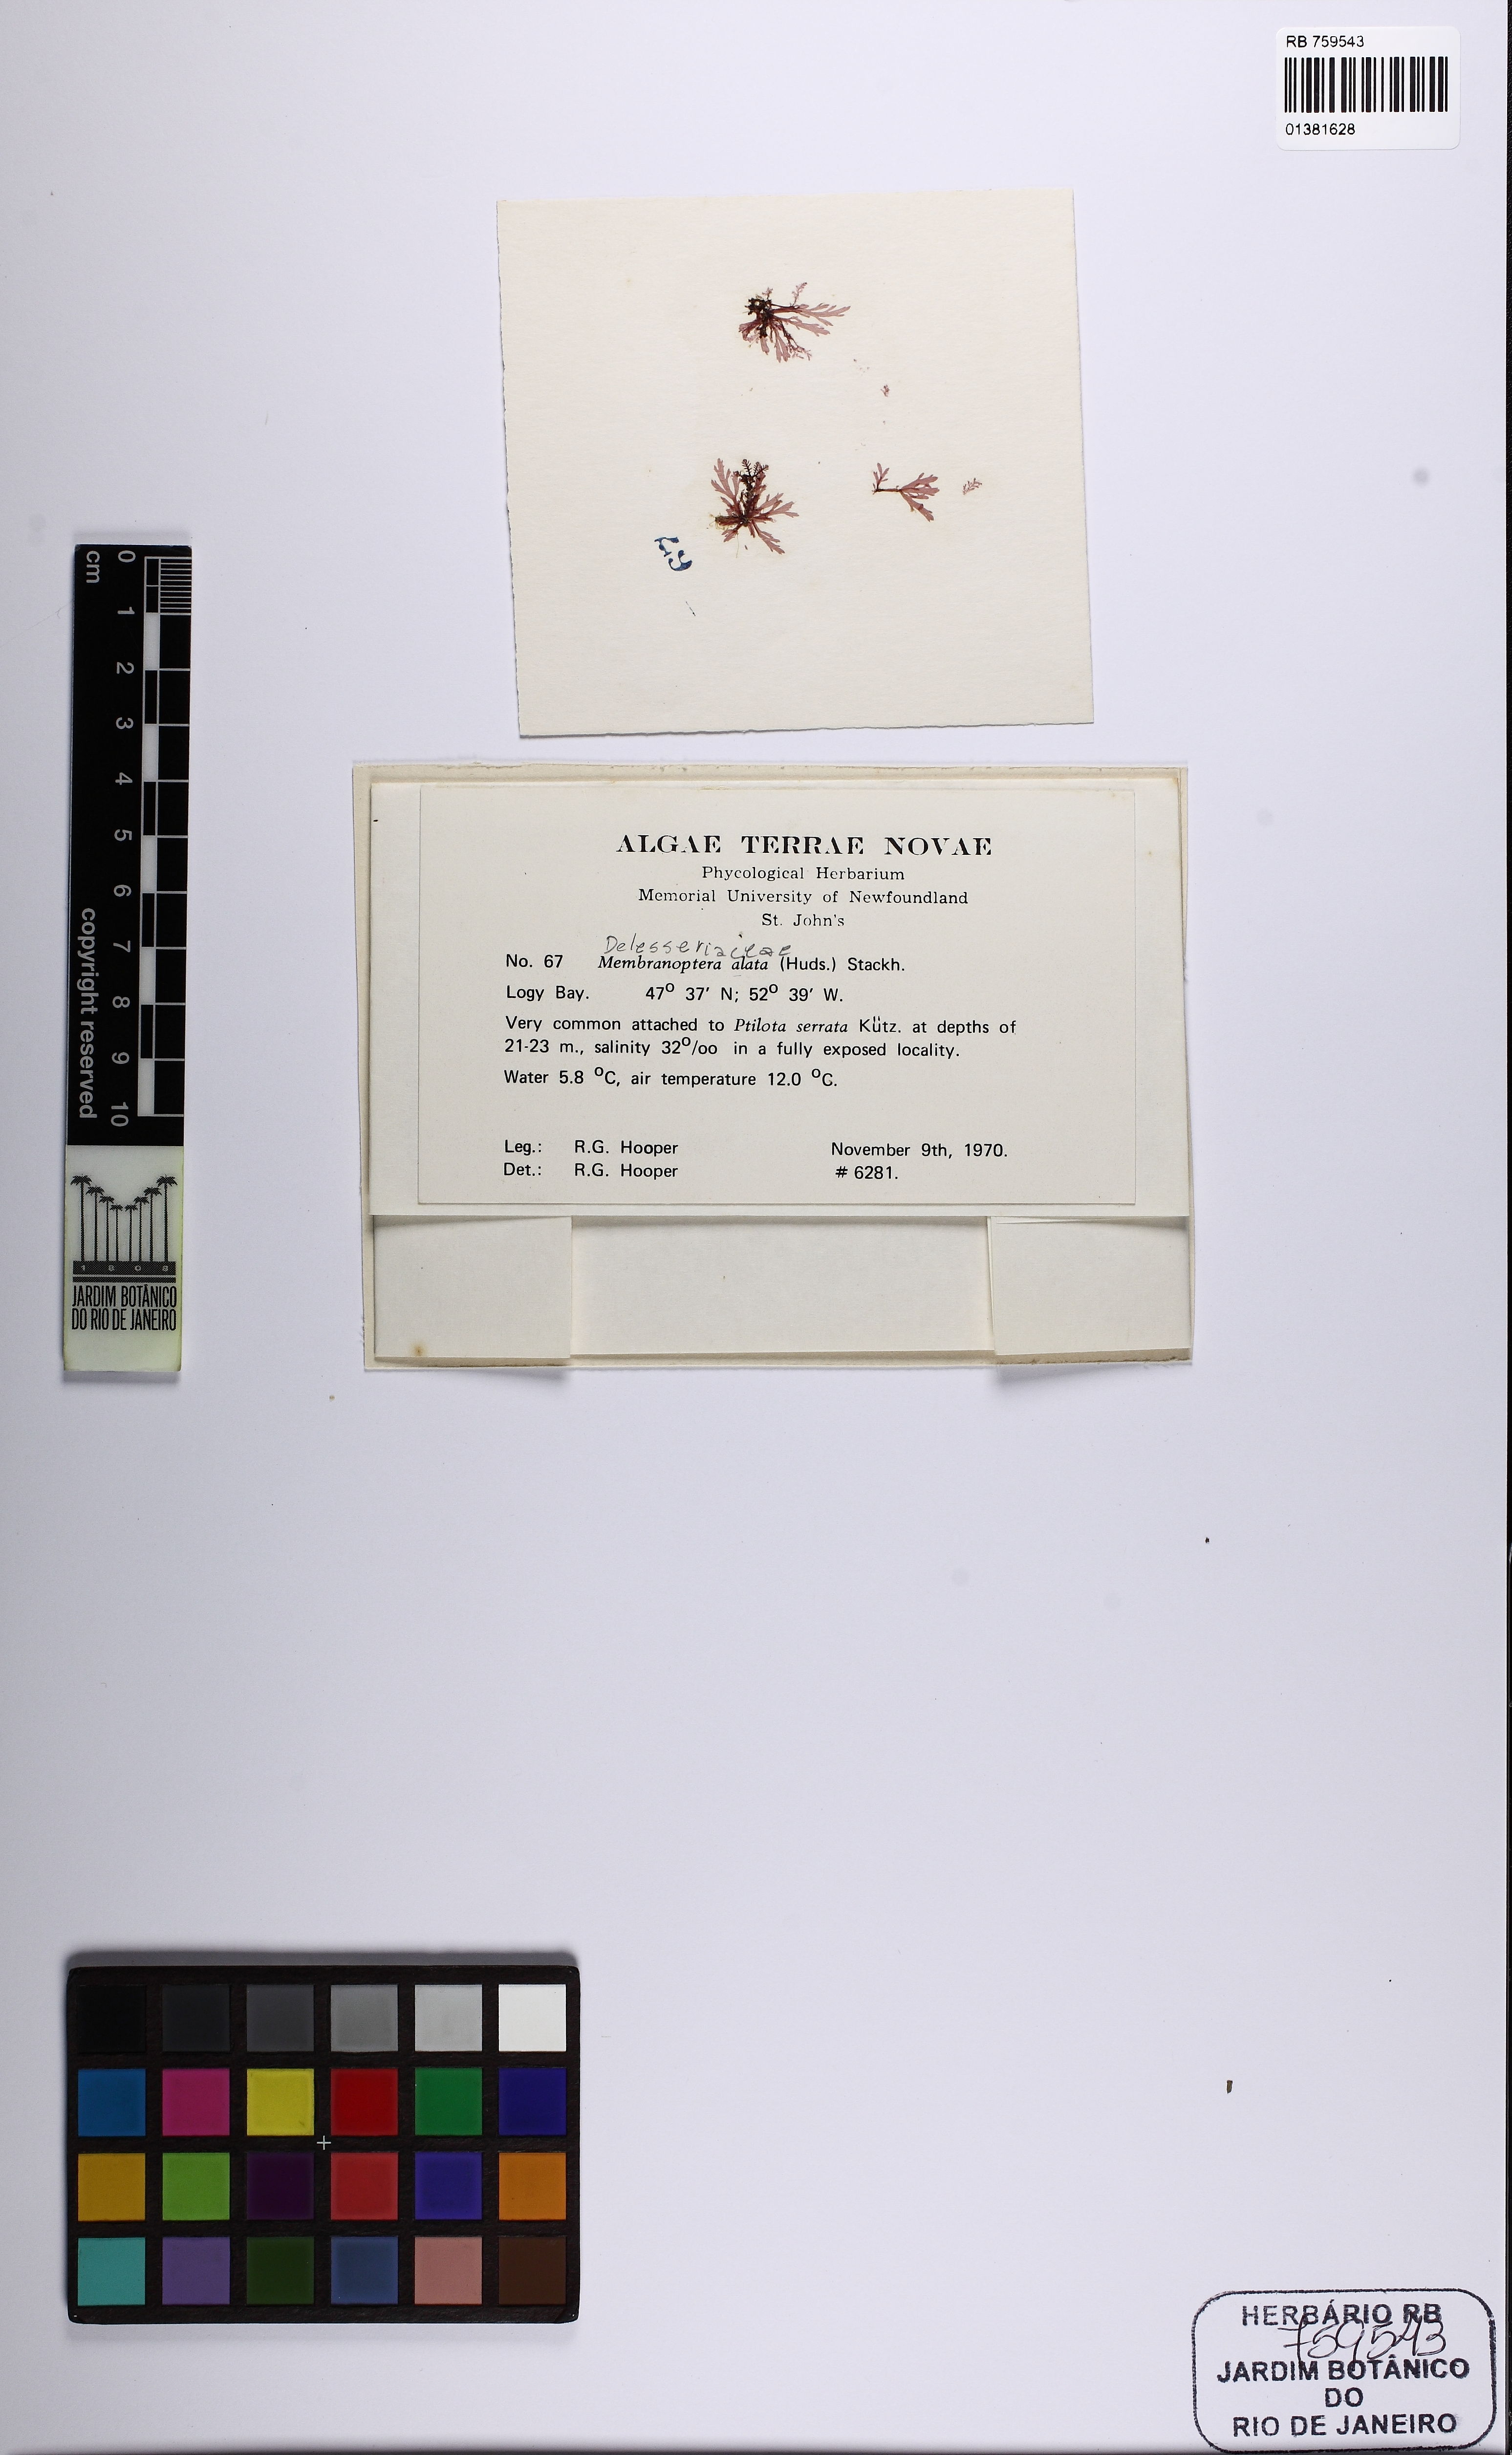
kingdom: Plantae
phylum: Rhodophyta
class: Florideophyceae
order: Ceramiales
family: Delesseriaceae
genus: Membranoptera
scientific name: Membranoptera alata
